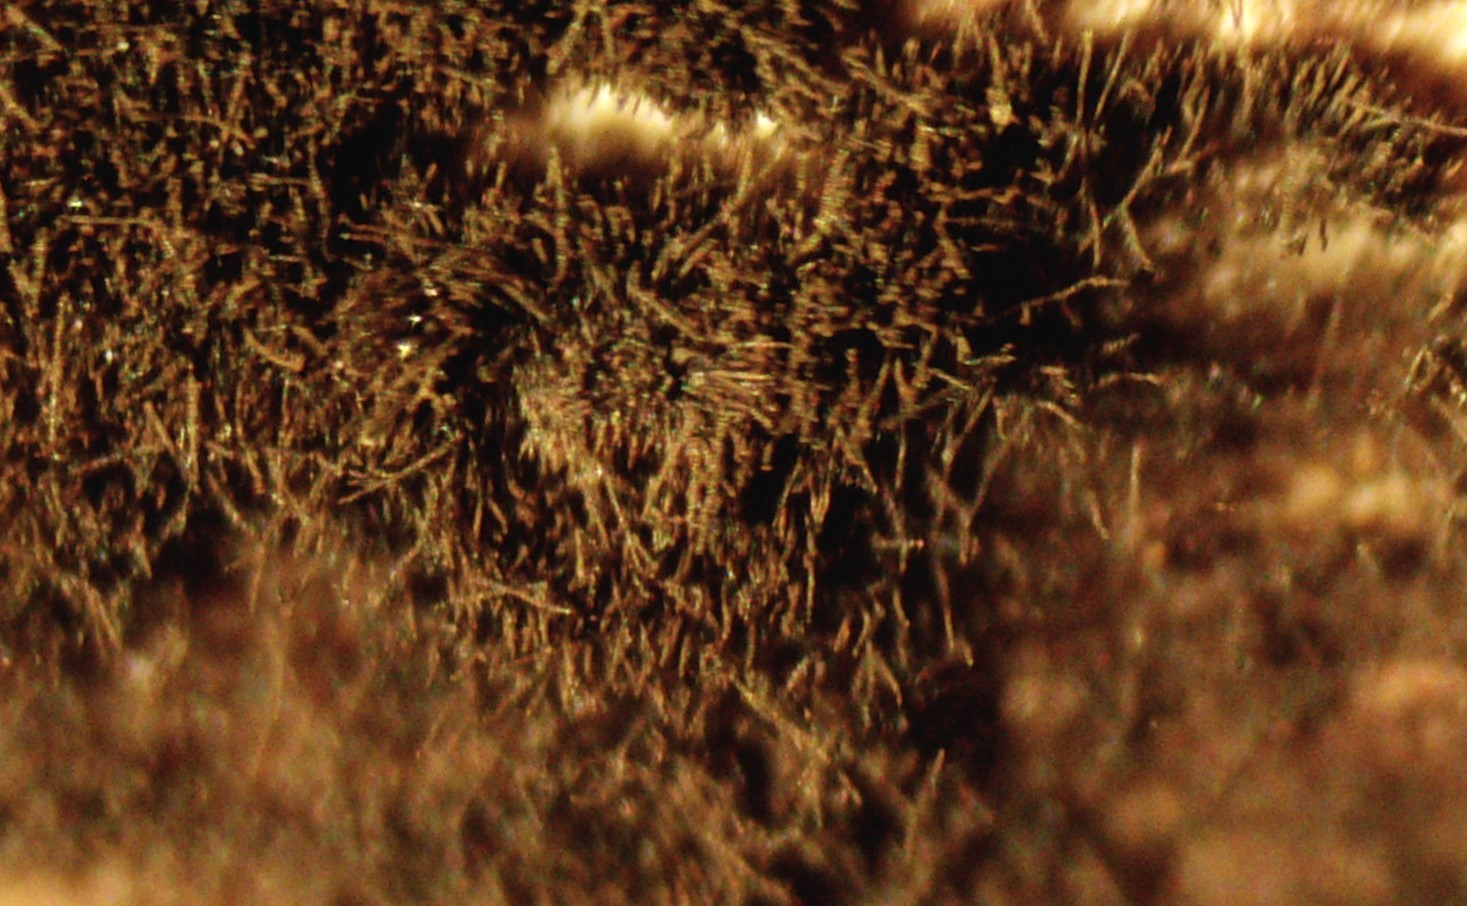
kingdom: Fungi
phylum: Ascomycota
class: Dothideomycetes
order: Pleosporales
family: Torulaceae
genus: Torula
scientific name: Torula herbarum
